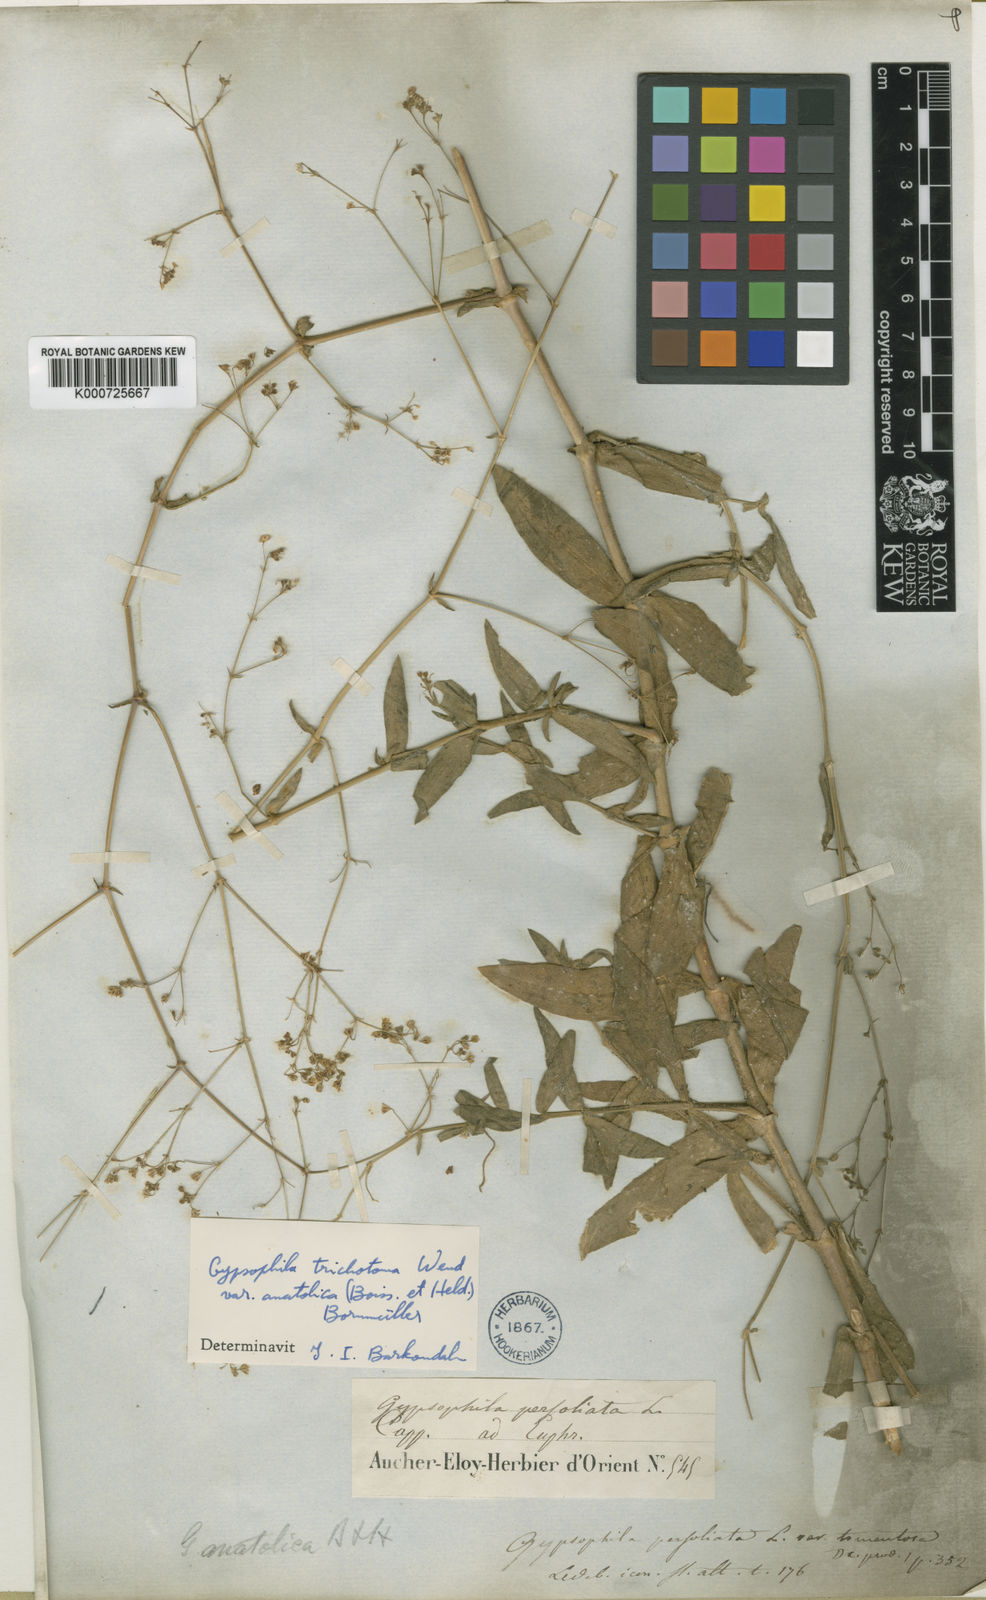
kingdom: Plantae
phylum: Tracheophyta
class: Magnoliopsida
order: Caryophyllales
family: Caryophyllaceae
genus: Gypsophila
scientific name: Gypsophila perfoliata
